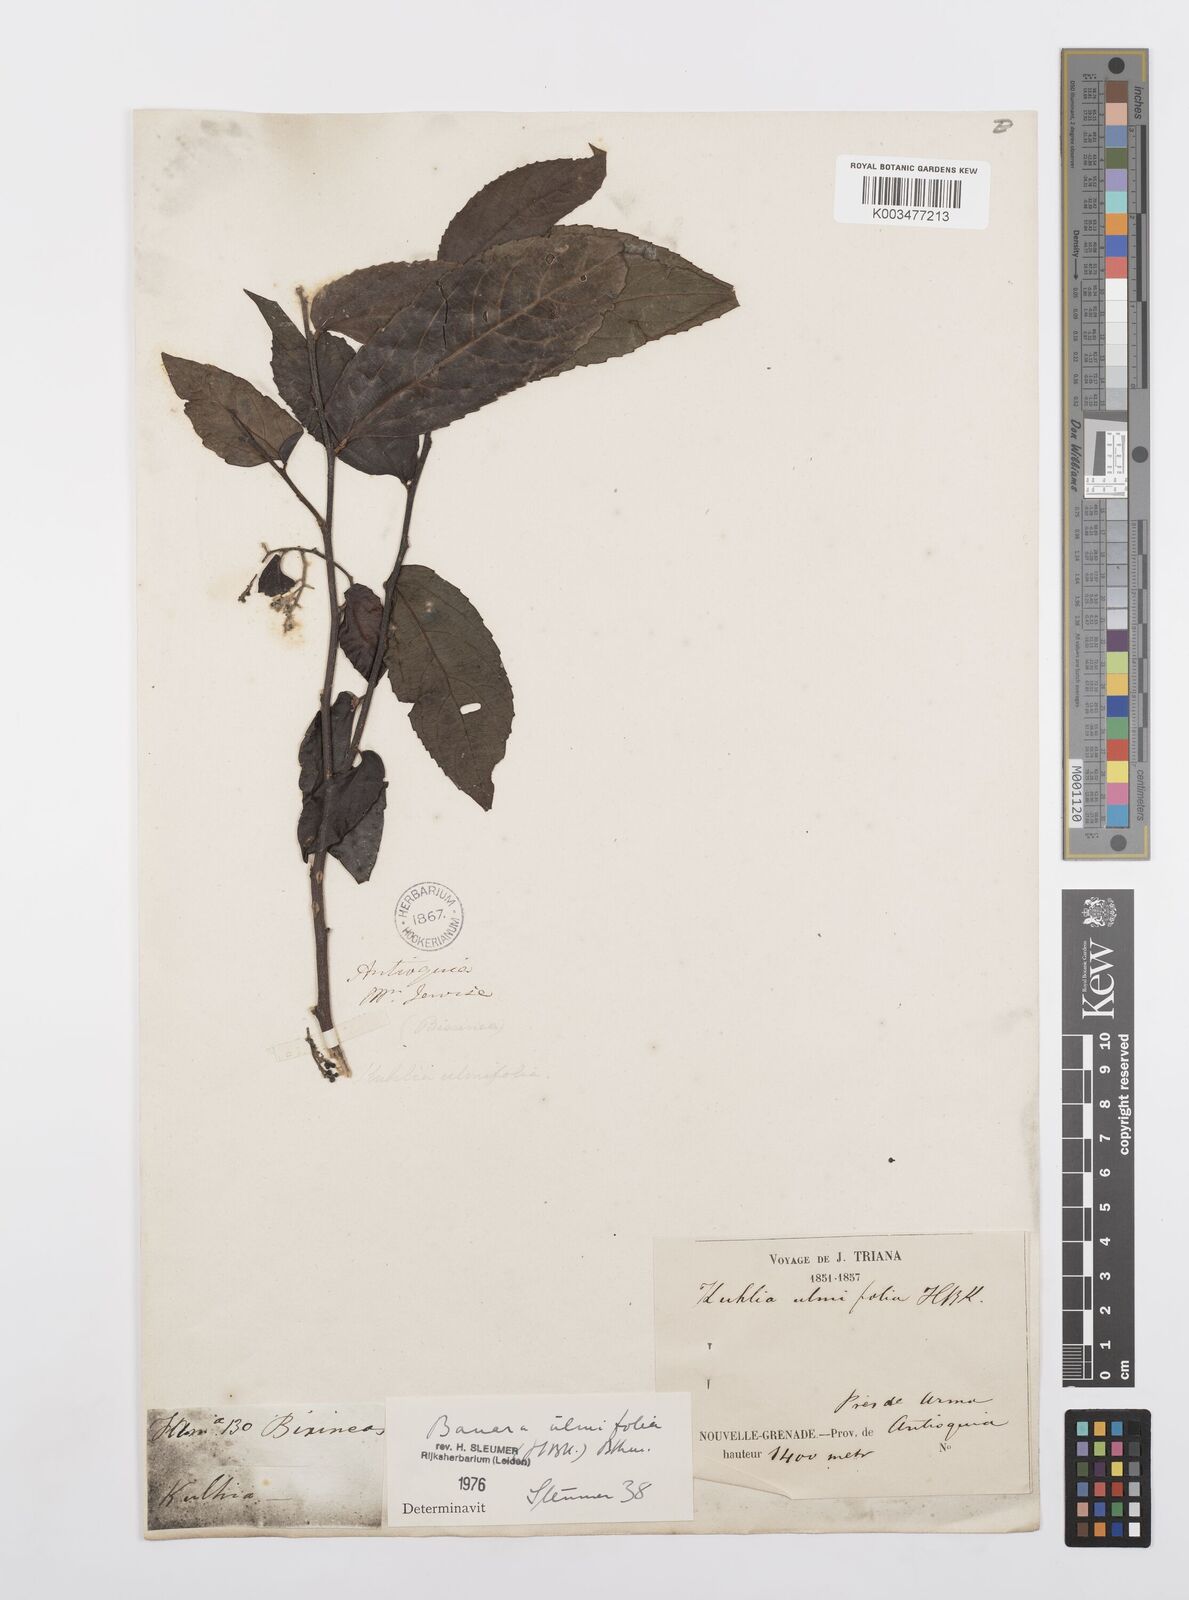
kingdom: Plantae
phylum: Tracheophyta
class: Magnoliopsida
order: Malpighiales
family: Salicaceae
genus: Banara
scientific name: Banara ulmifolia
